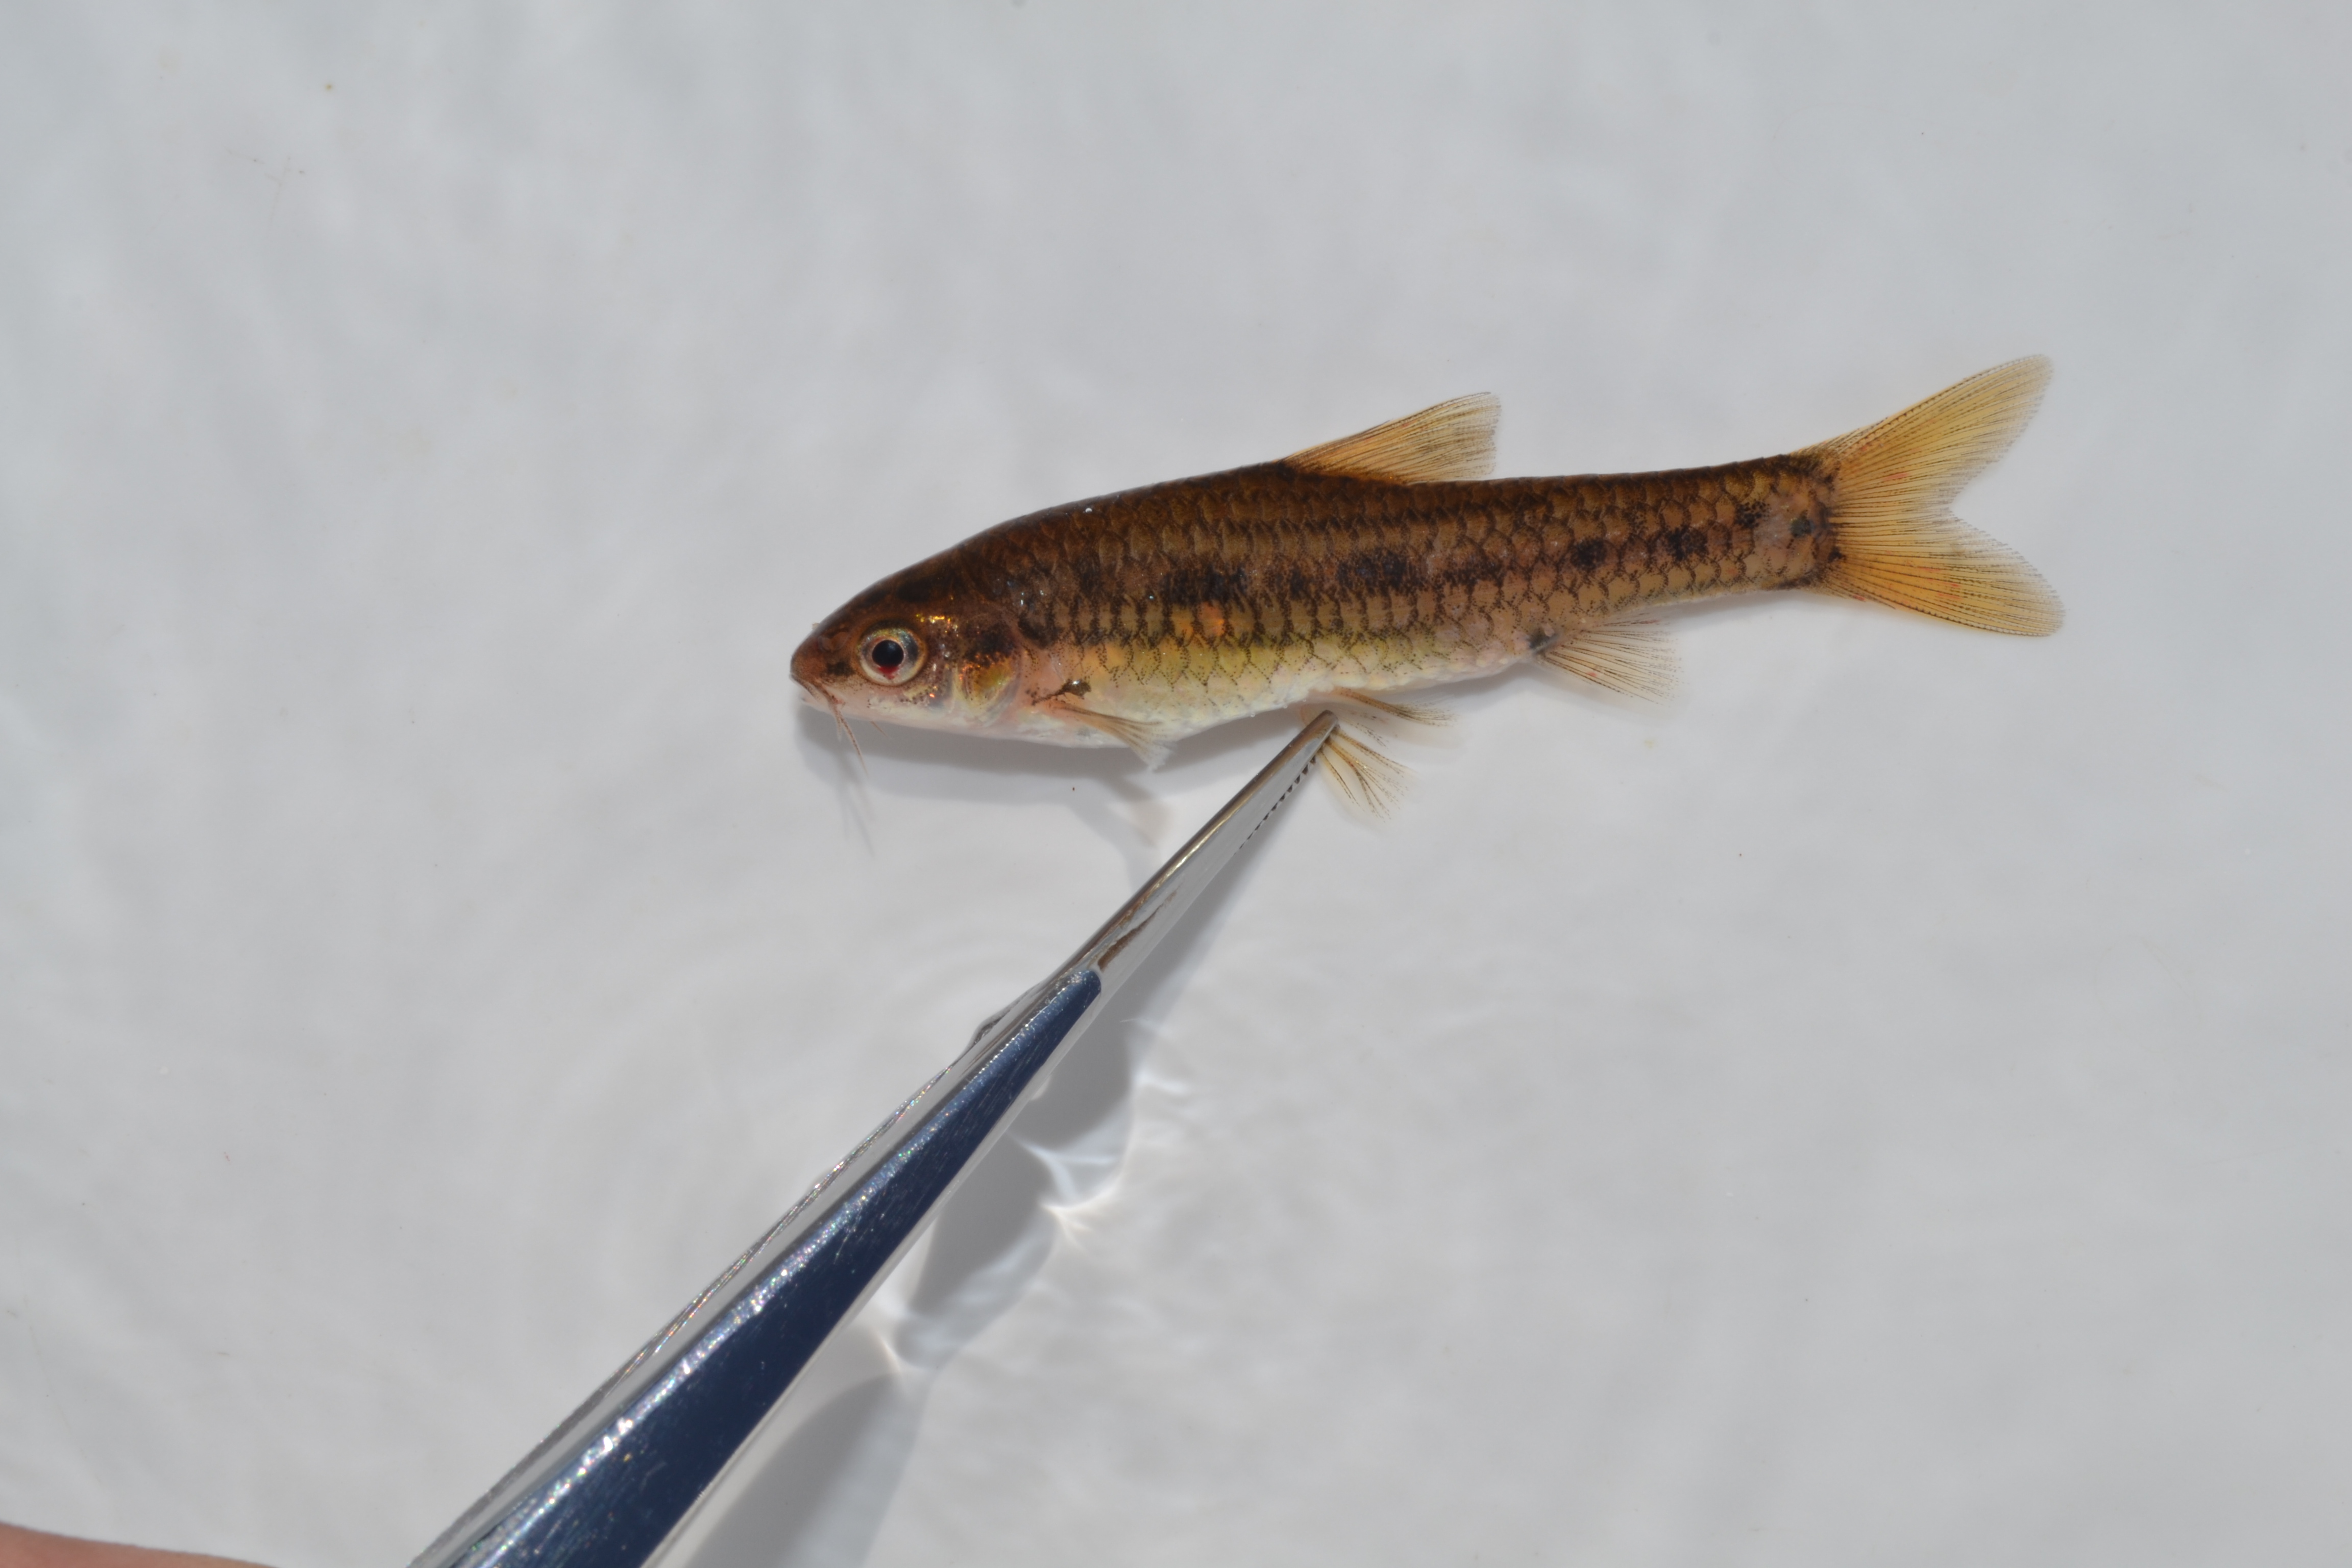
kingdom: Animalia
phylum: Chordata
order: Cypriniformes
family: Cyprinidae
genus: Enteromius
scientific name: Enteromius brevipinnis
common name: Shortfin barb
